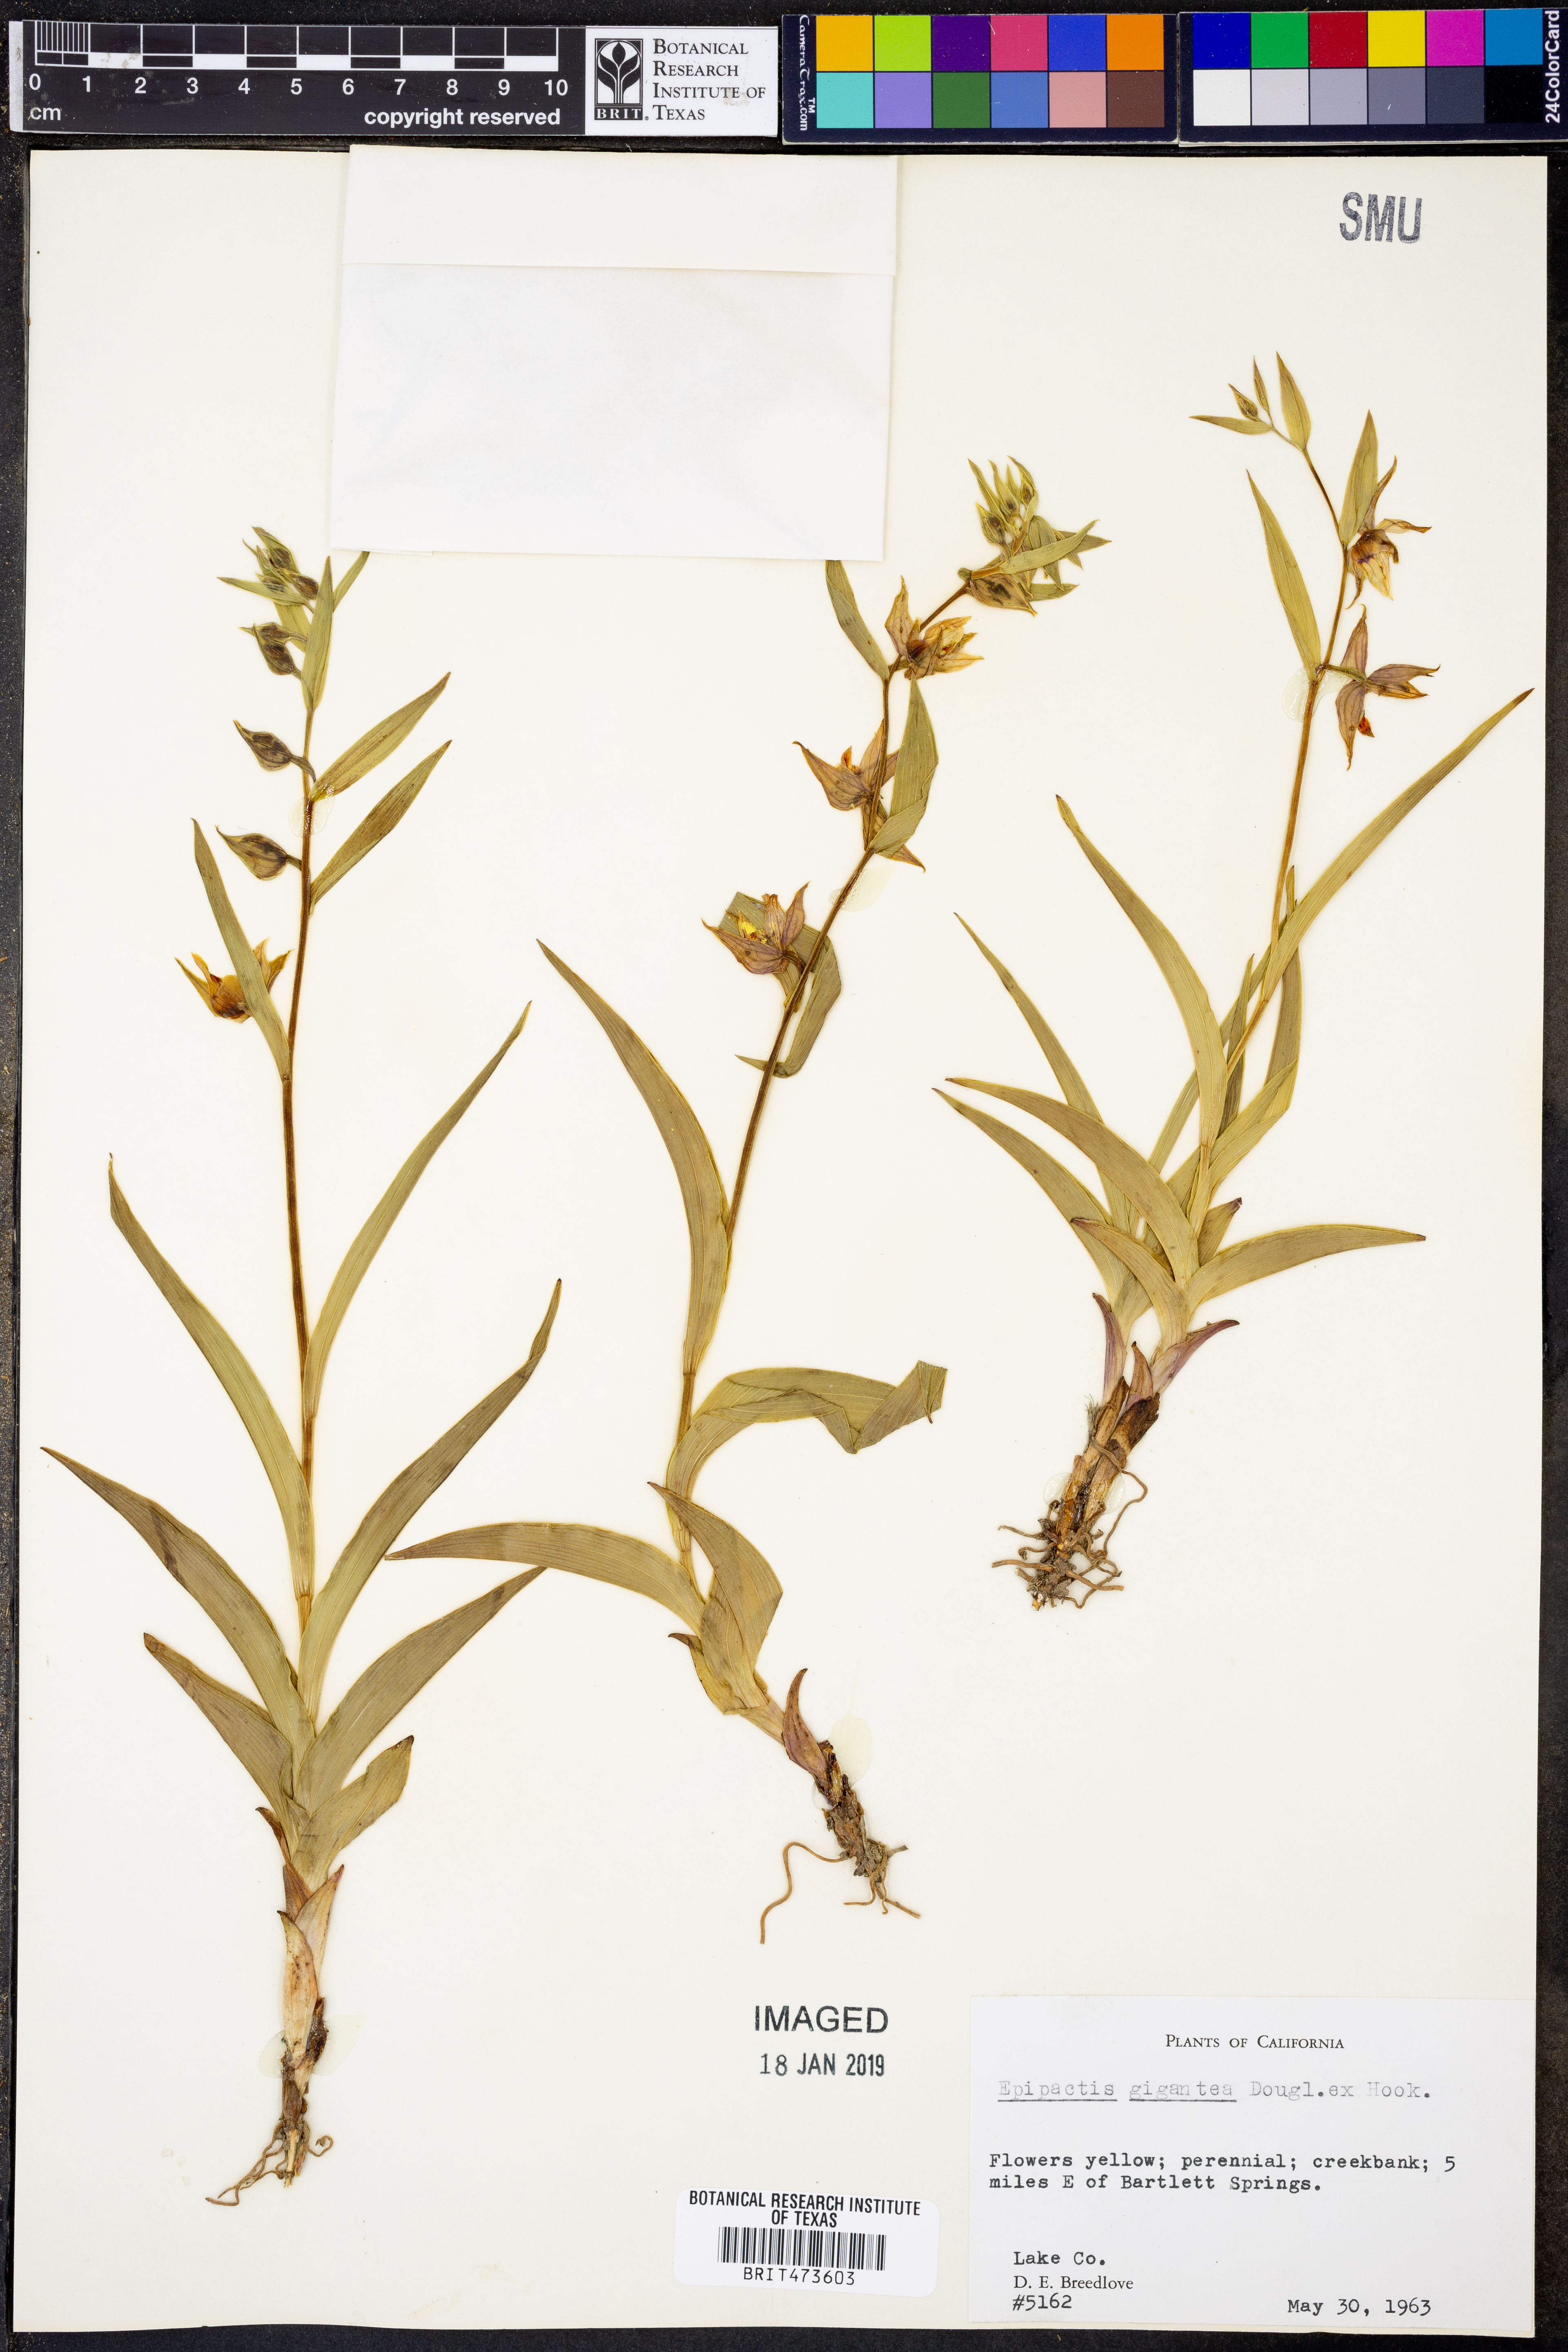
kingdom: Plantae
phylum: Tracheophyta
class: Liliopsida
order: Asparagales
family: Orchidaceae
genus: Epipactis
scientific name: Epipactis gigantea
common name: Chatterbox
